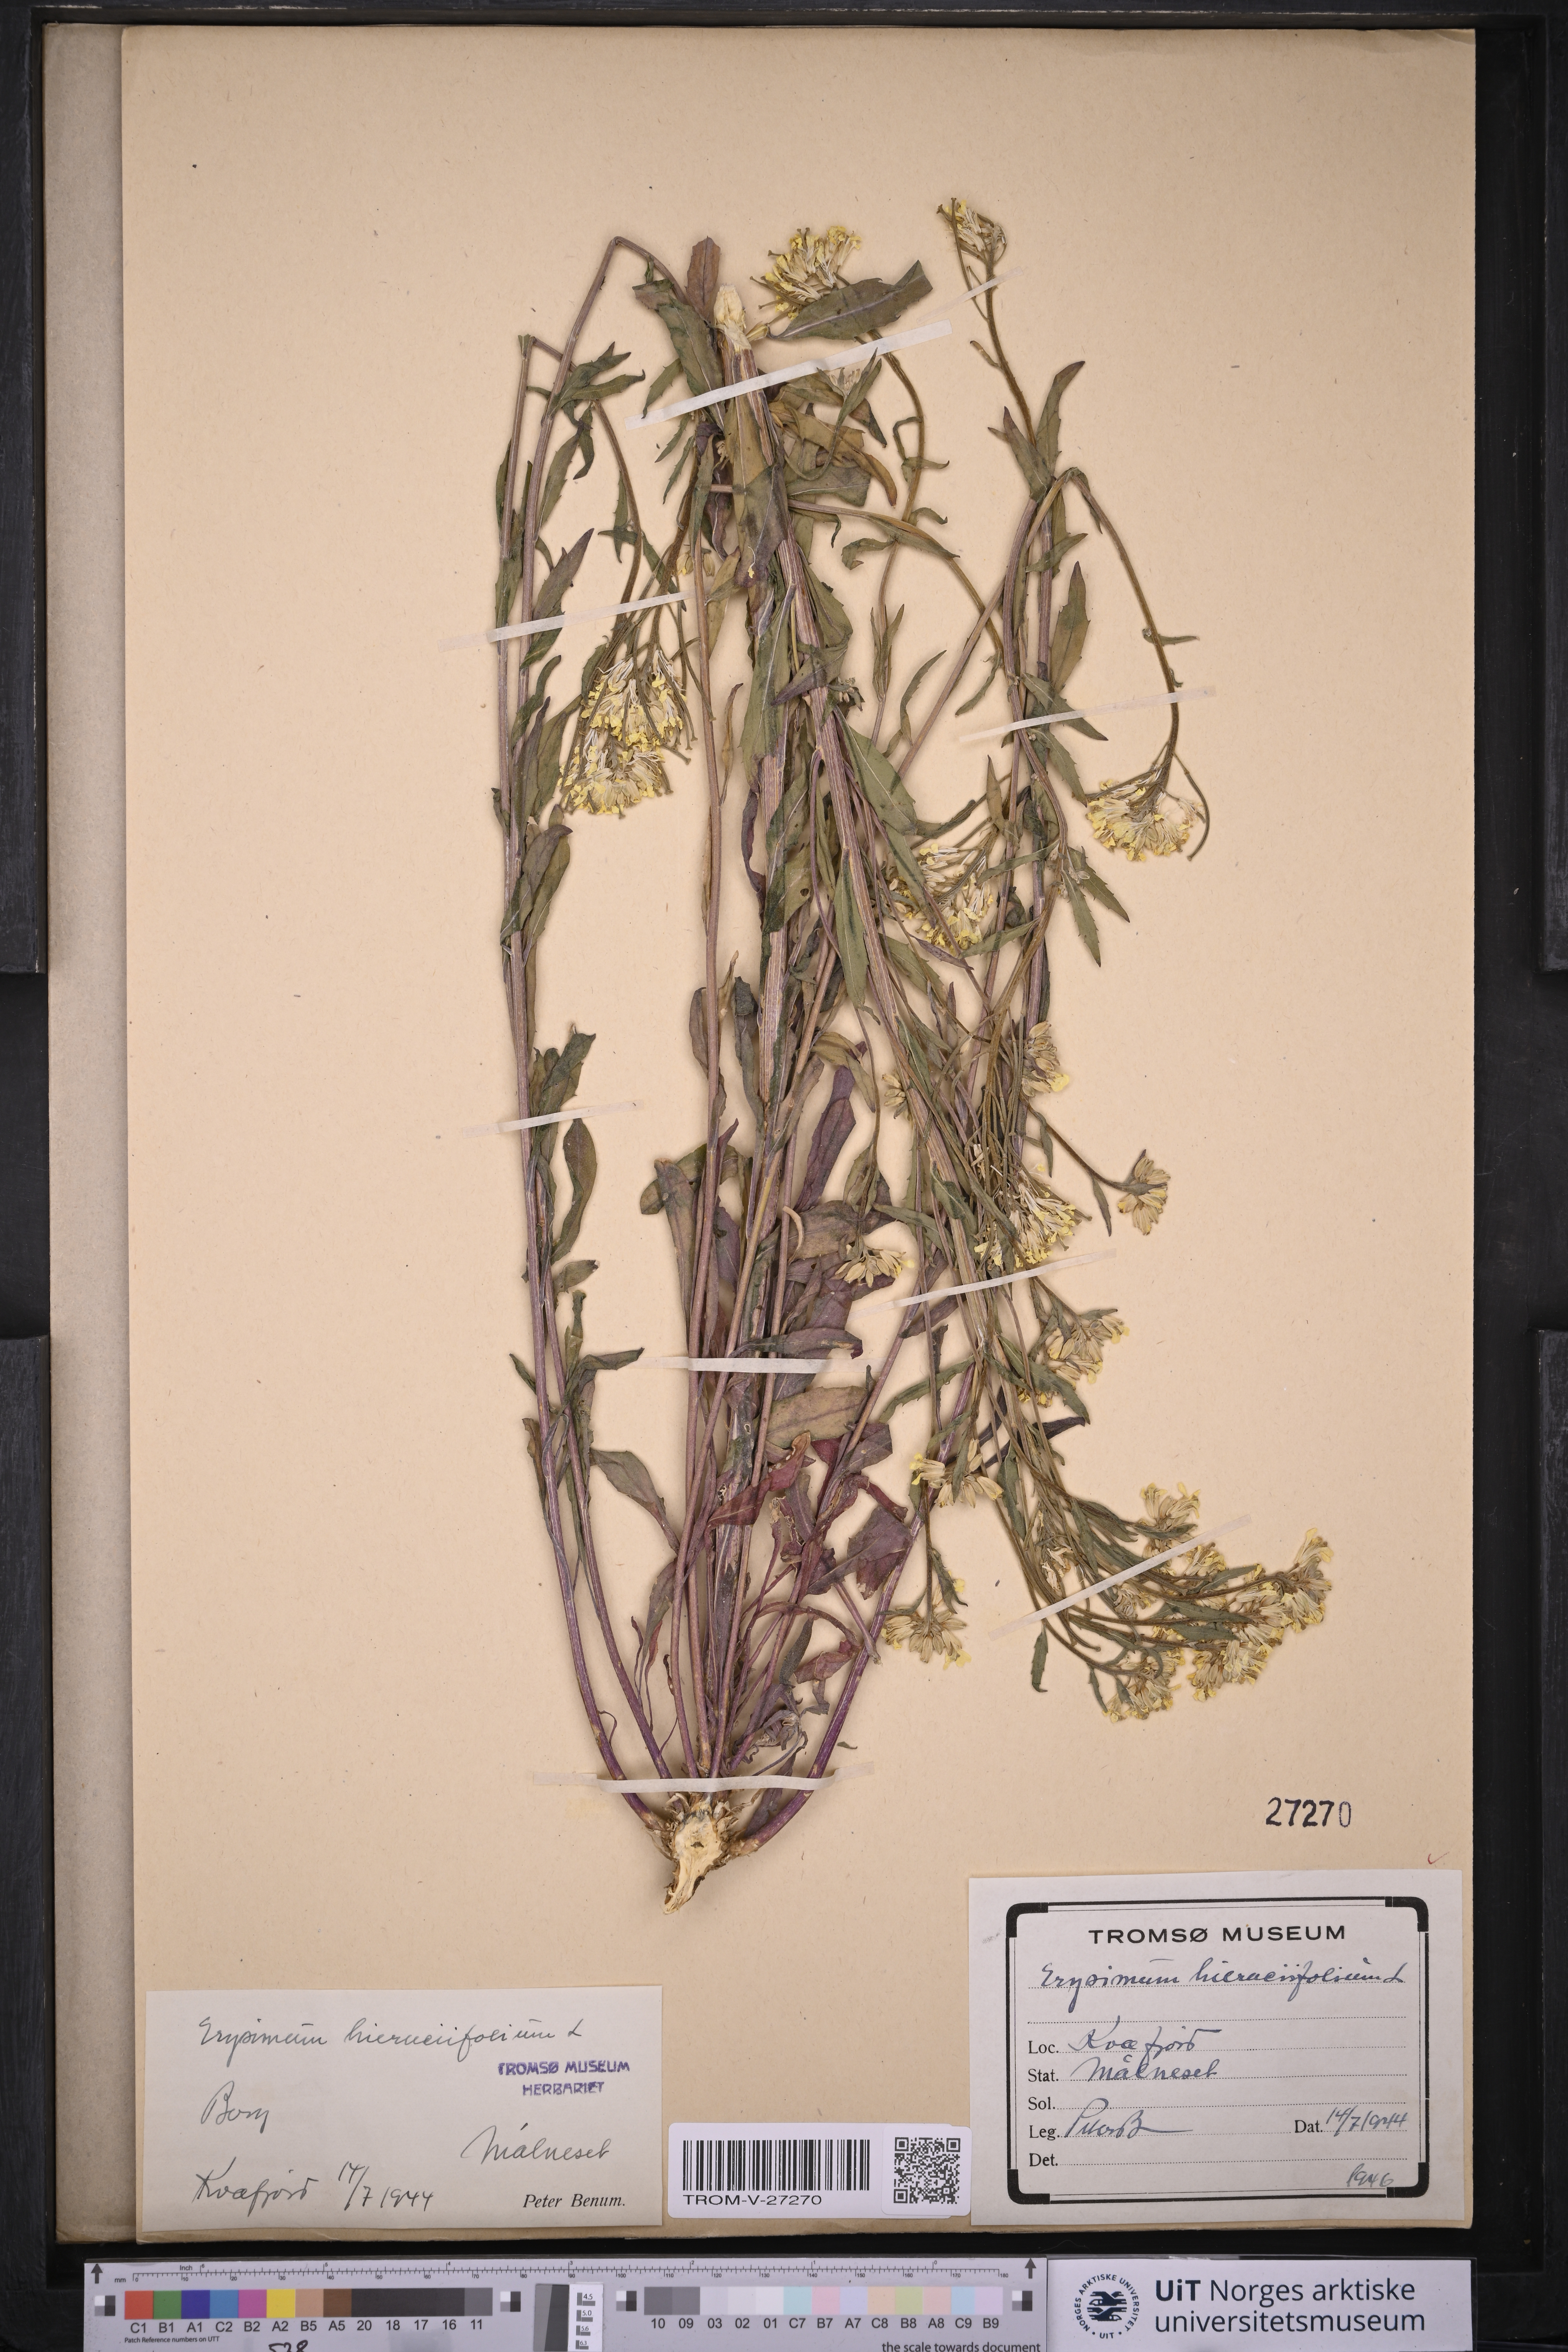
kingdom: Plantae
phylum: Tracheophyta
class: Magnoliopsida
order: Brassicales
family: Brassicaceae
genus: Erysimum
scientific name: Erysimum virgatum
